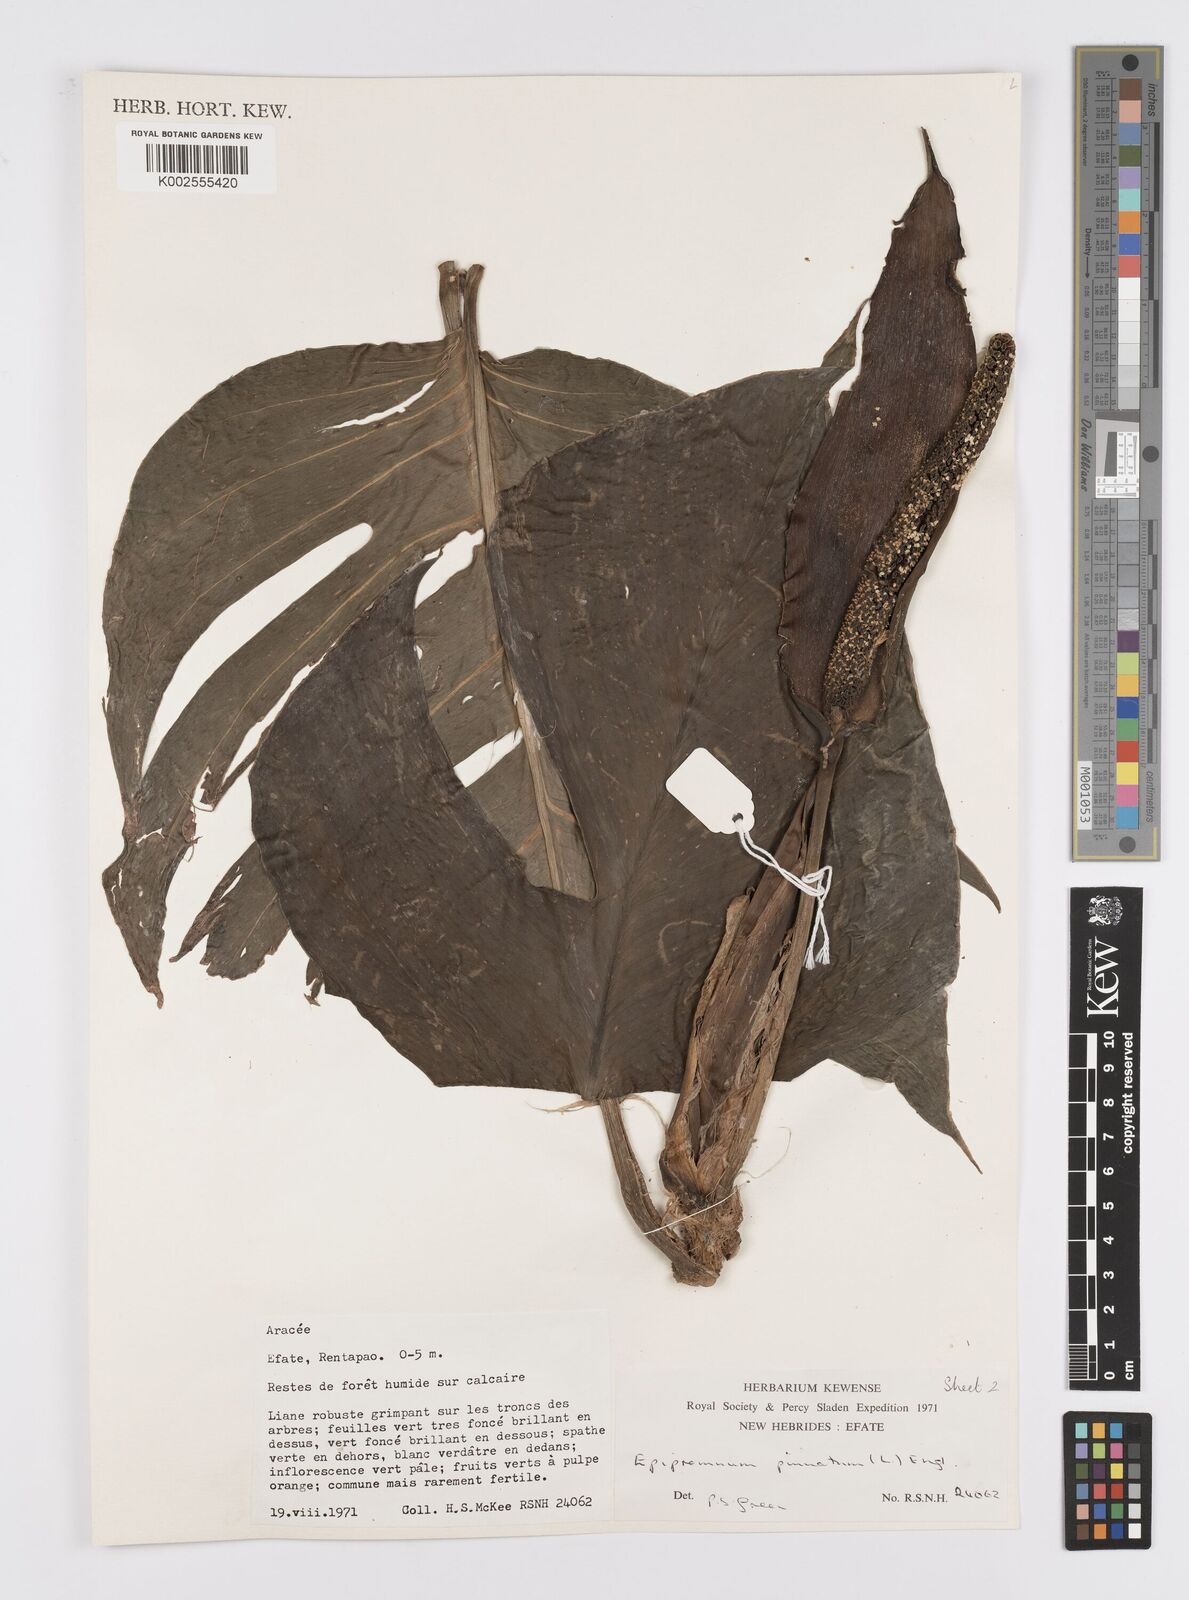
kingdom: Plantae
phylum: Tracheophyta
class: Liliopsida
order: Alismatales
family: Araceae
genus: Epipremnum
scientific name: Epipremnum pinnatum
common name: Centipede tongavine
